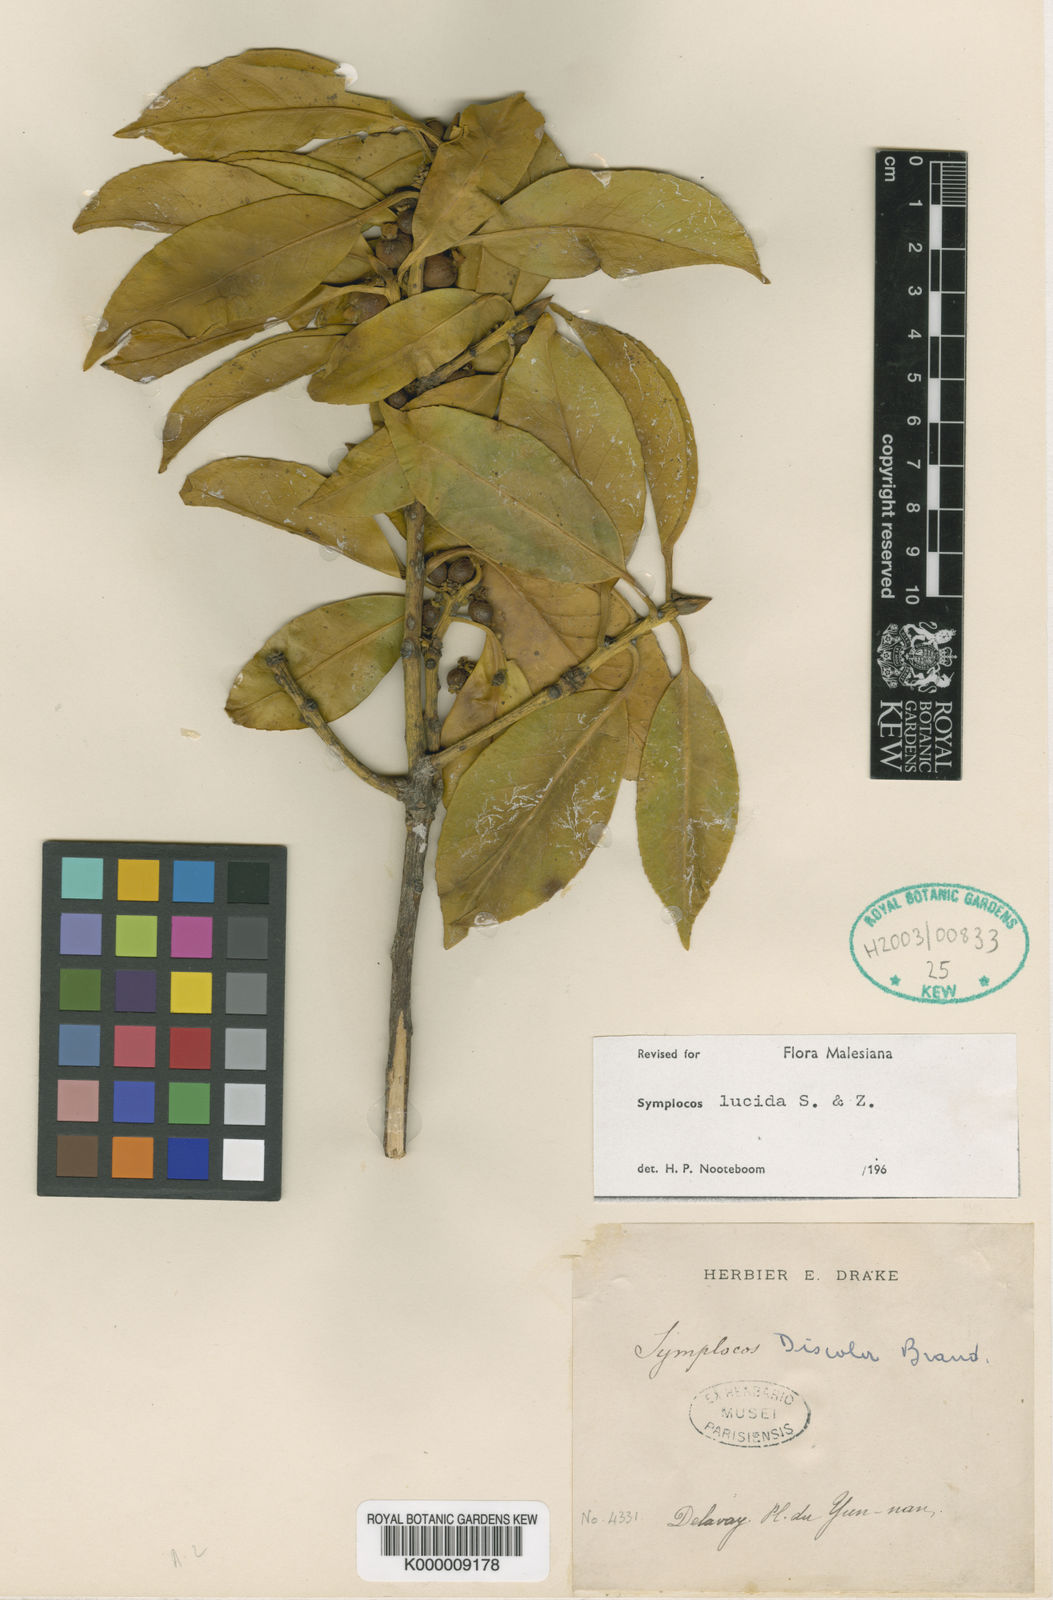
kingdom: Plantae
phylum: Tracheophyta
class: Magnoliopsida
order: Ericales
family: Symplocaceae
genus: Symplocos
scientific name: Symplocos
